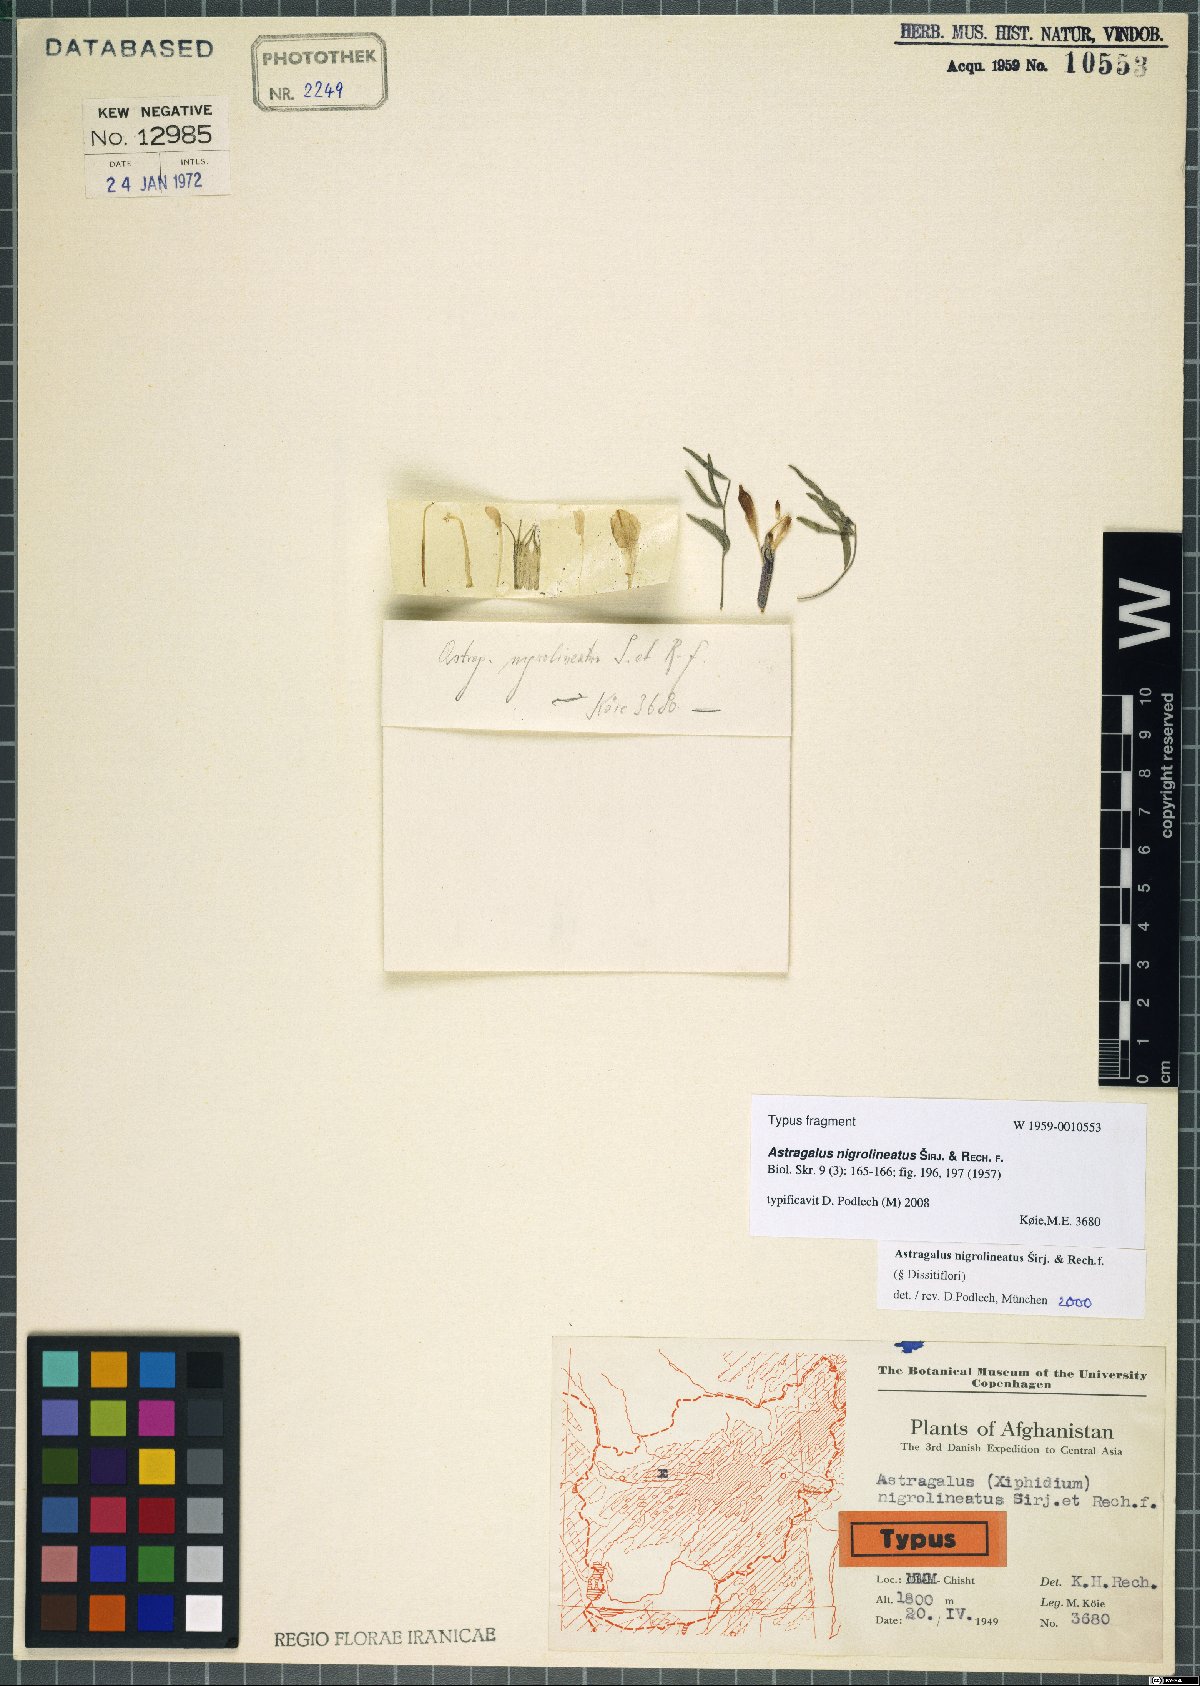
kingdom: Plantae
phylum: Tracheophyta
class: Magnoliopsida
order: Fabales
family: Fabaceae
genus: Astragalus
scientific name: Astragalus nigrolineatus
